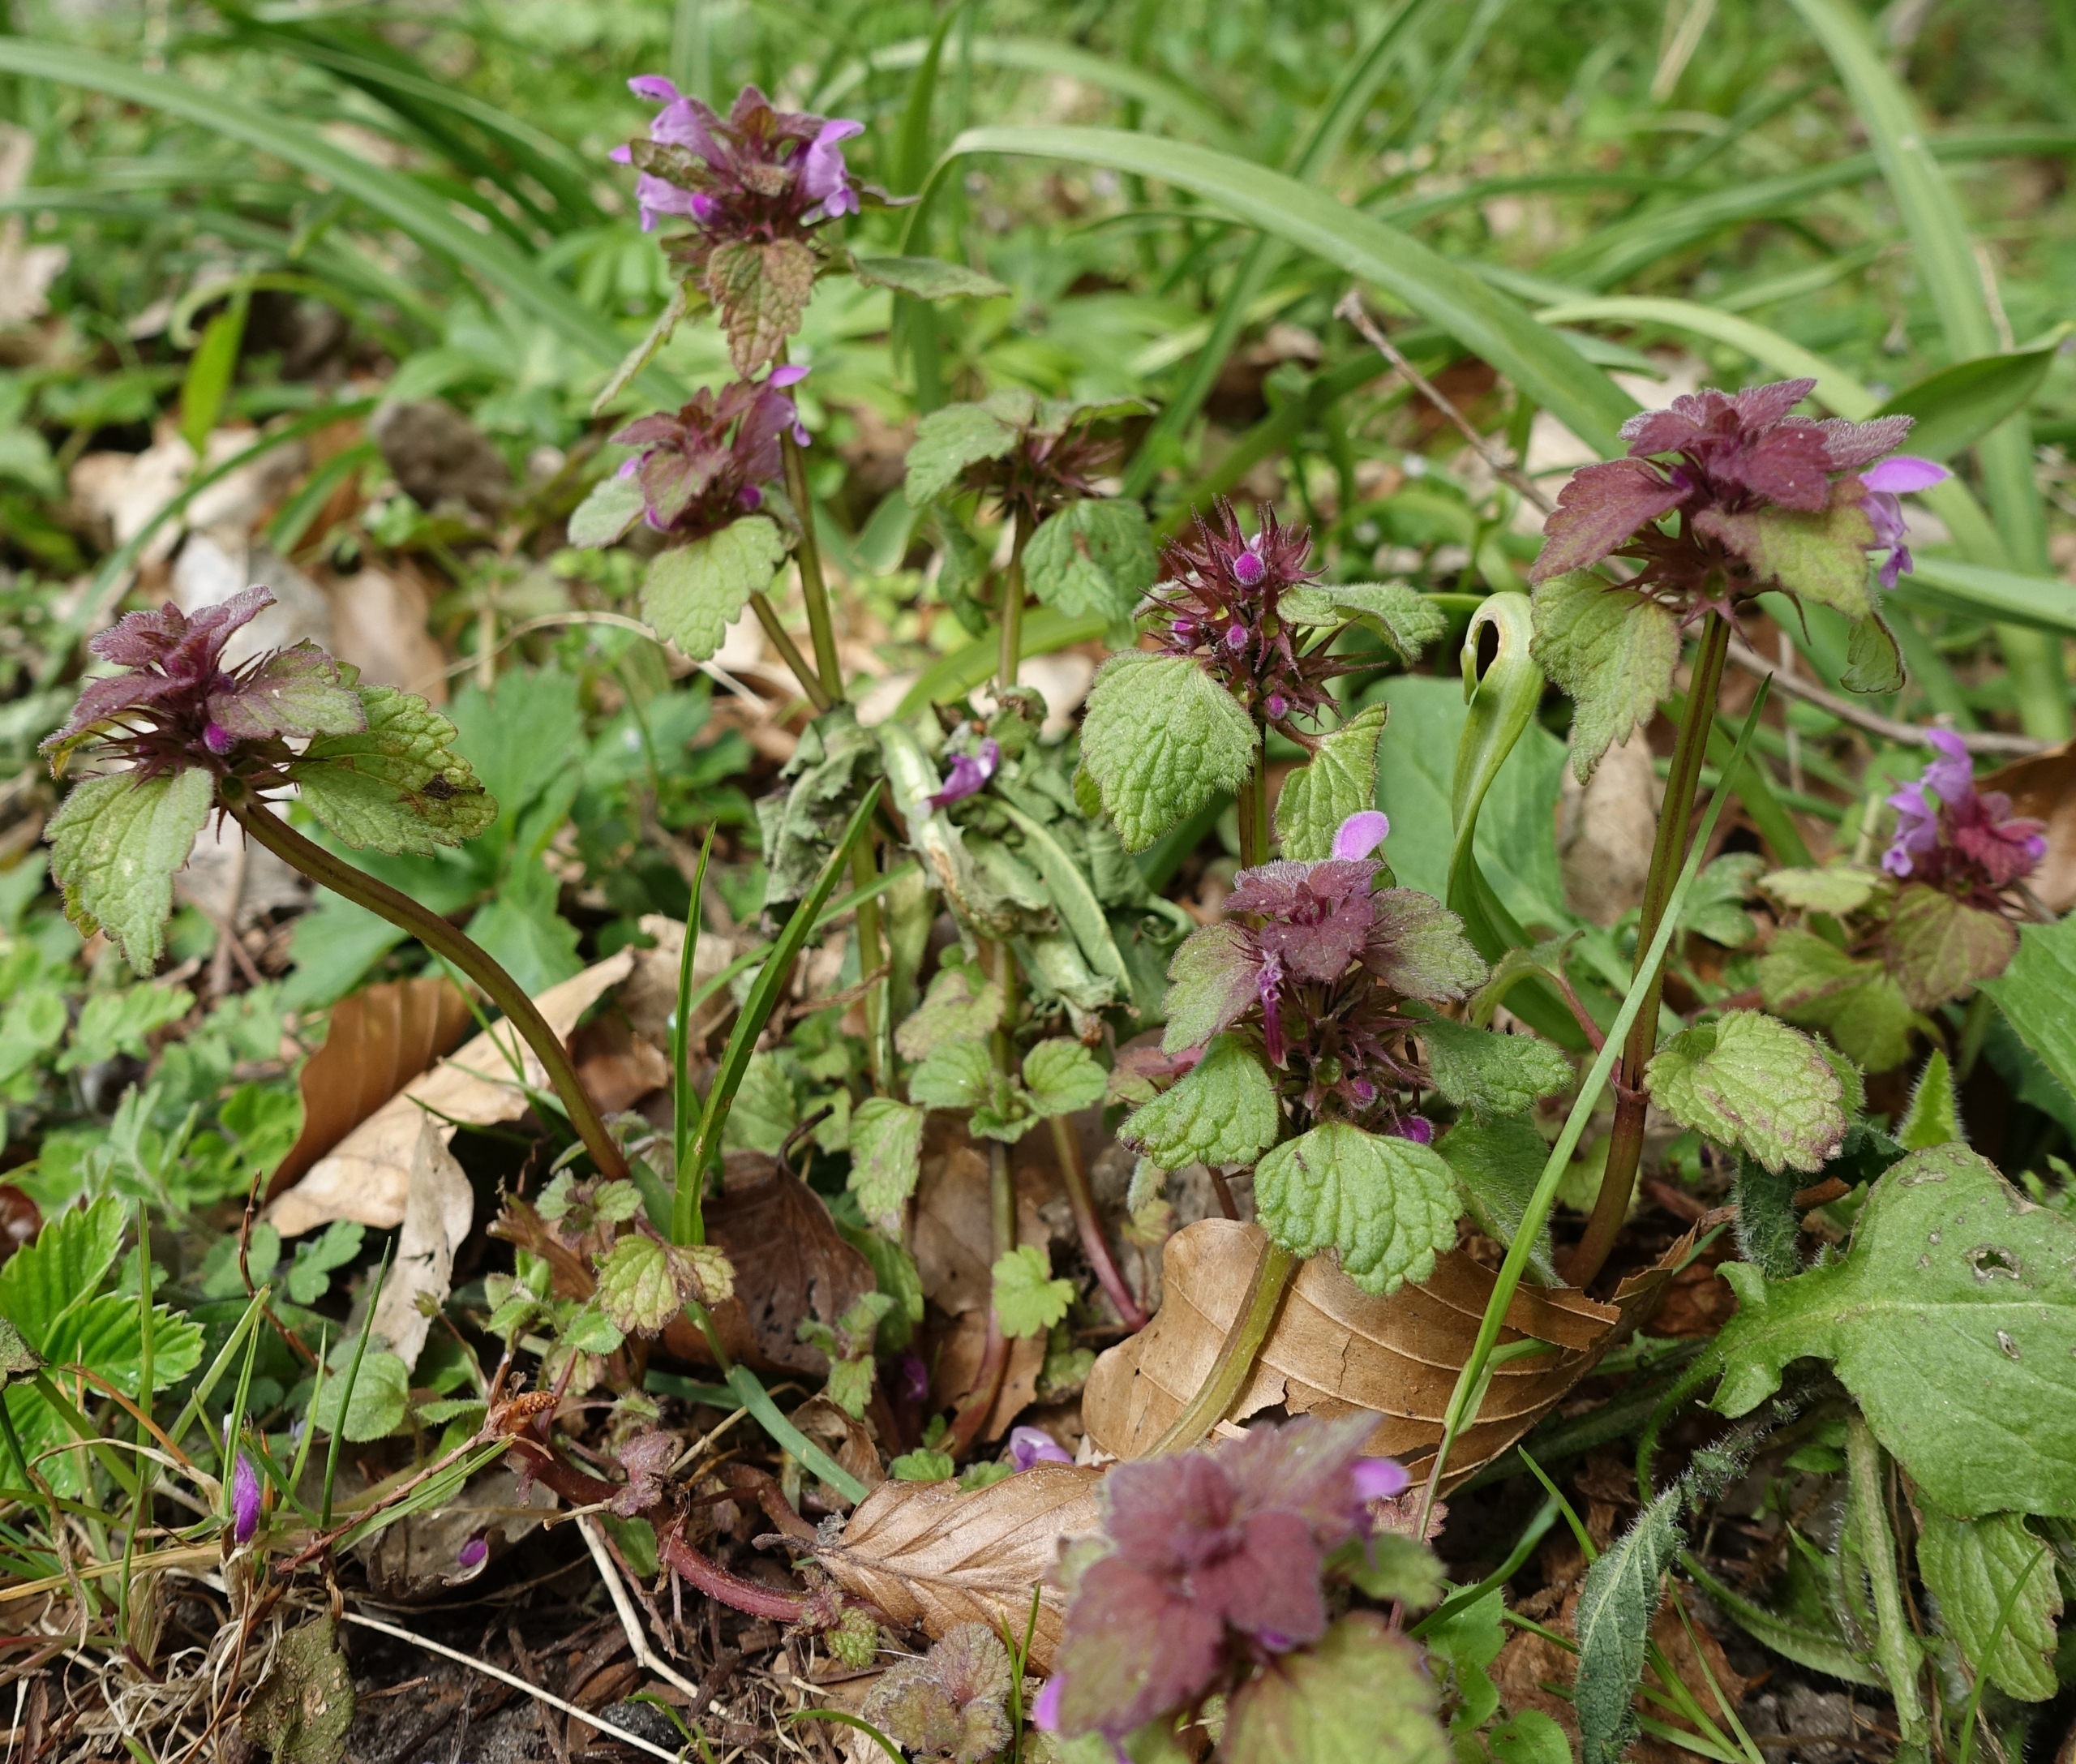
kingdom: Plantae
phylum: Tracheophyta
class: Magnoliopsida
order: Lamiales
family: Lamiaceae
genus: Lamium
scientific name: Lamium purpureum
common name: Rød tvetand
